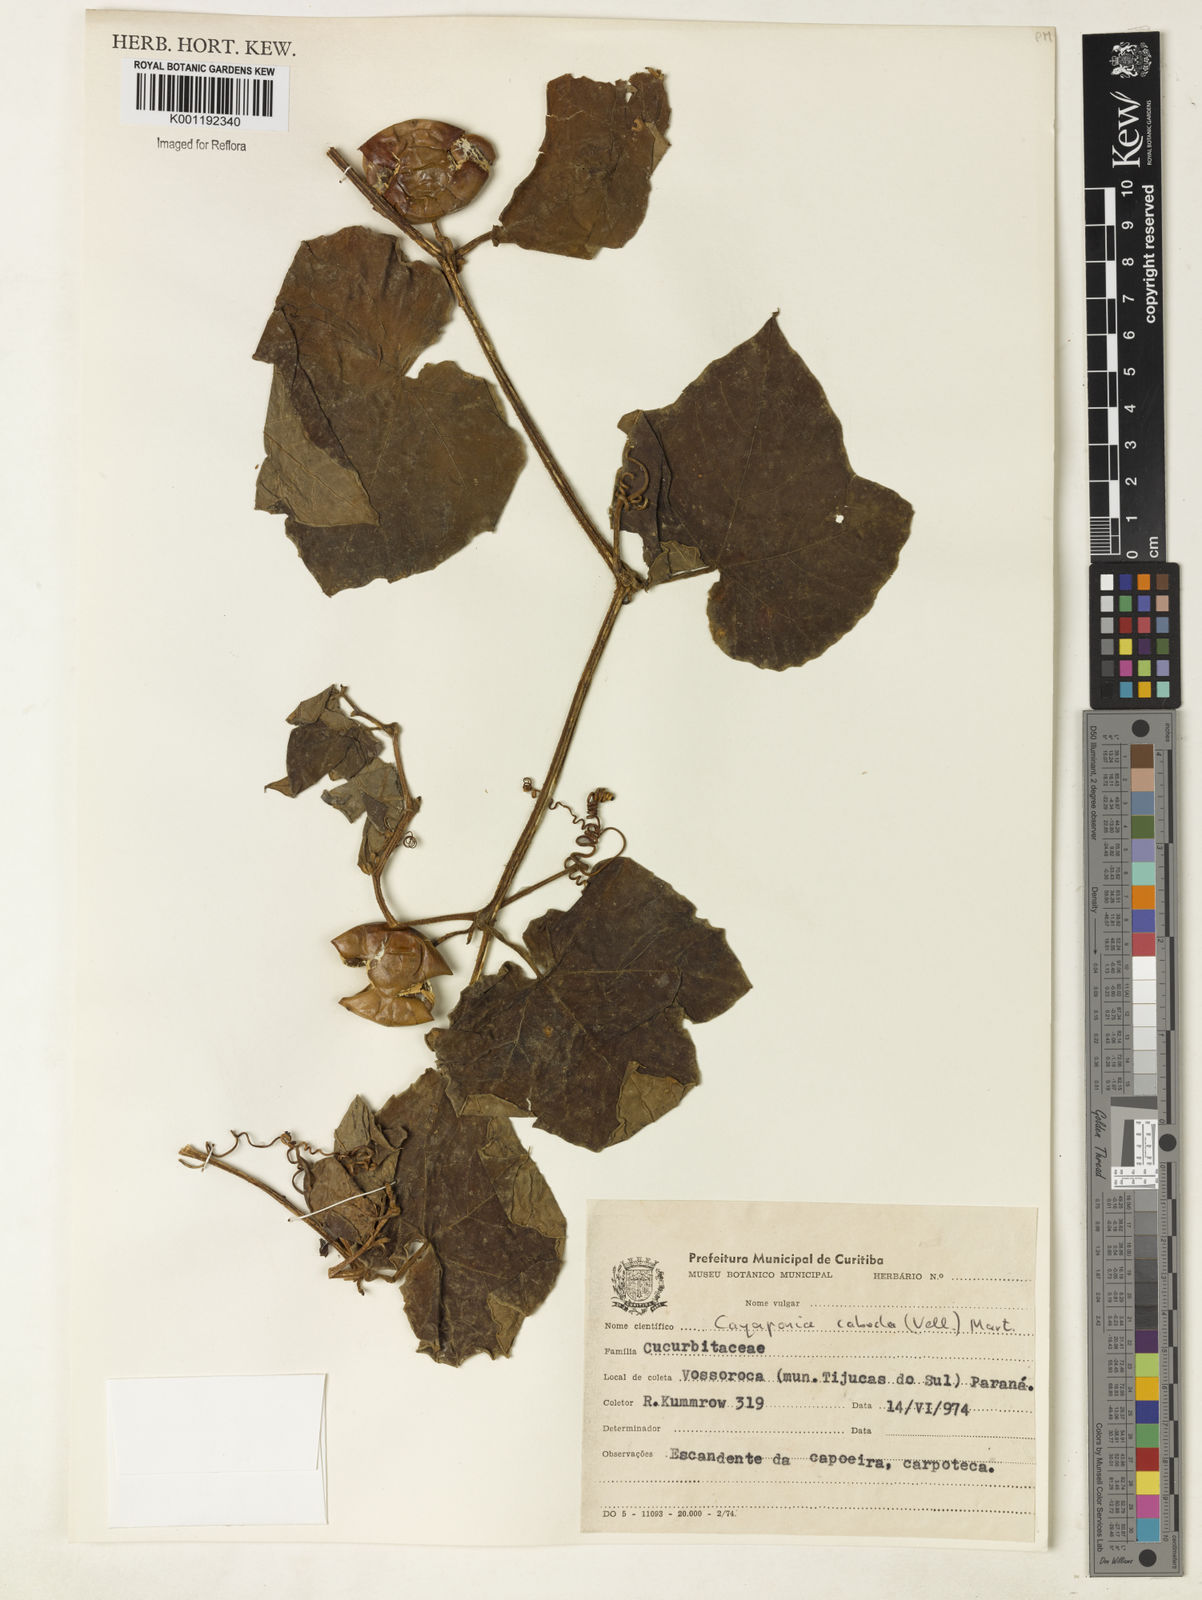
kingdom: Plantae
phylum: Tracheophyta
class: Magnoliopsida
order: Cucurbitales
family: Cucurbitaceae
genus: Cayaponia
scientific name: Cayaponia cabocla
